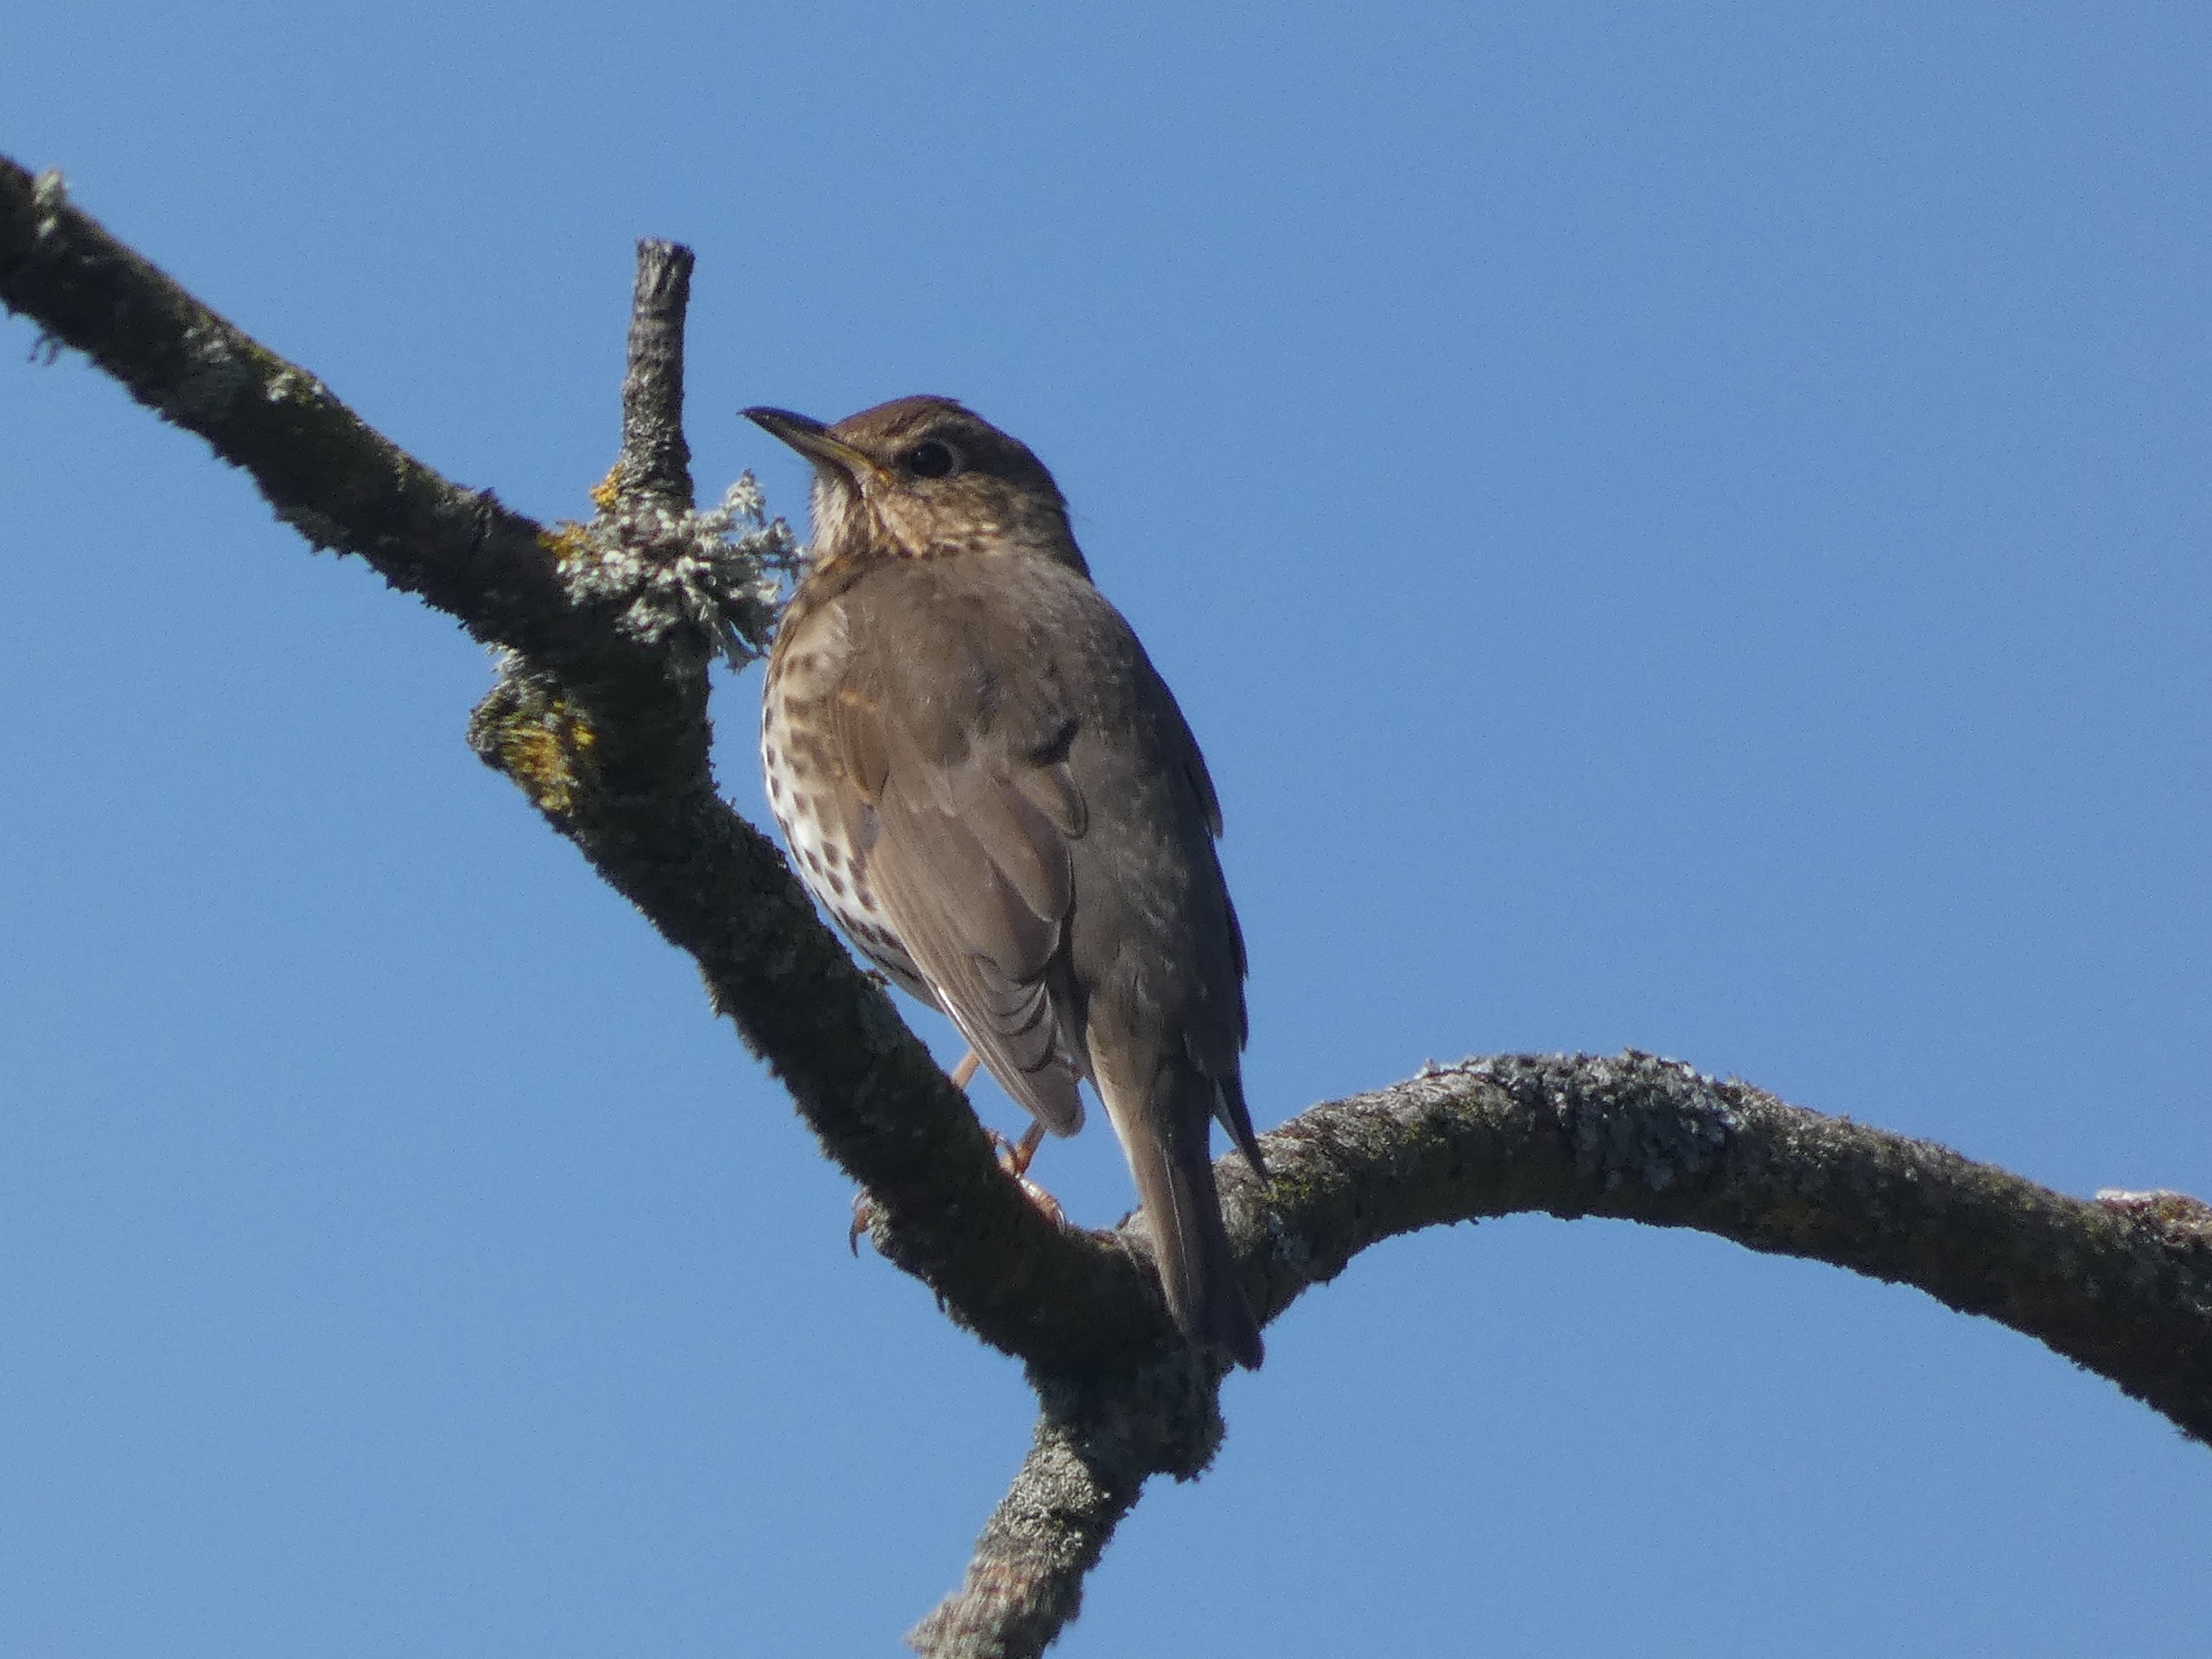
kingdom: Animalia
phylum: Chordata
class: Aves
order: Passeriformes
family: Turdidae
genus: Turdus
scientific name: Turdus philomelos
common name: Sangdrossel
